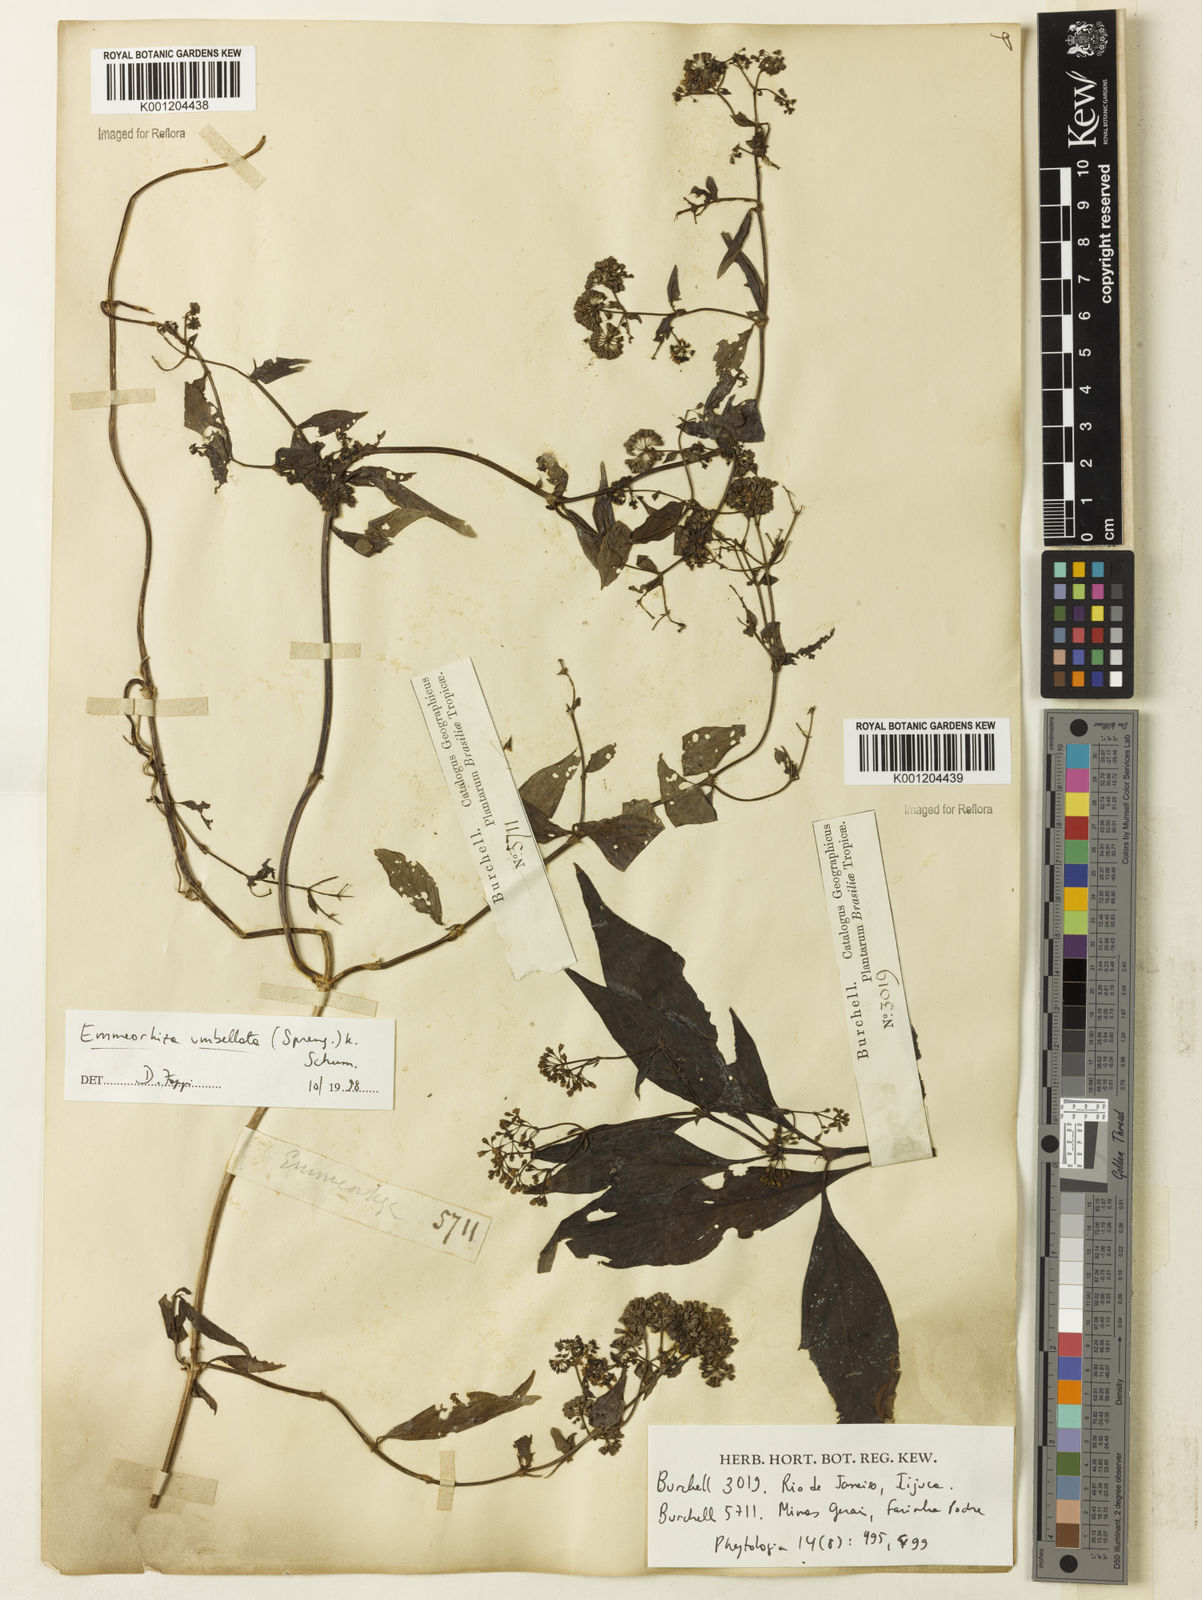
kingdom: Plantae
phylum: Tracheophyta
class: Magnoliopsida
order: Gentianales
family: Rubiaceae
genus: Emmeorhiza
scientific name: Emmeorhiza umbellata
